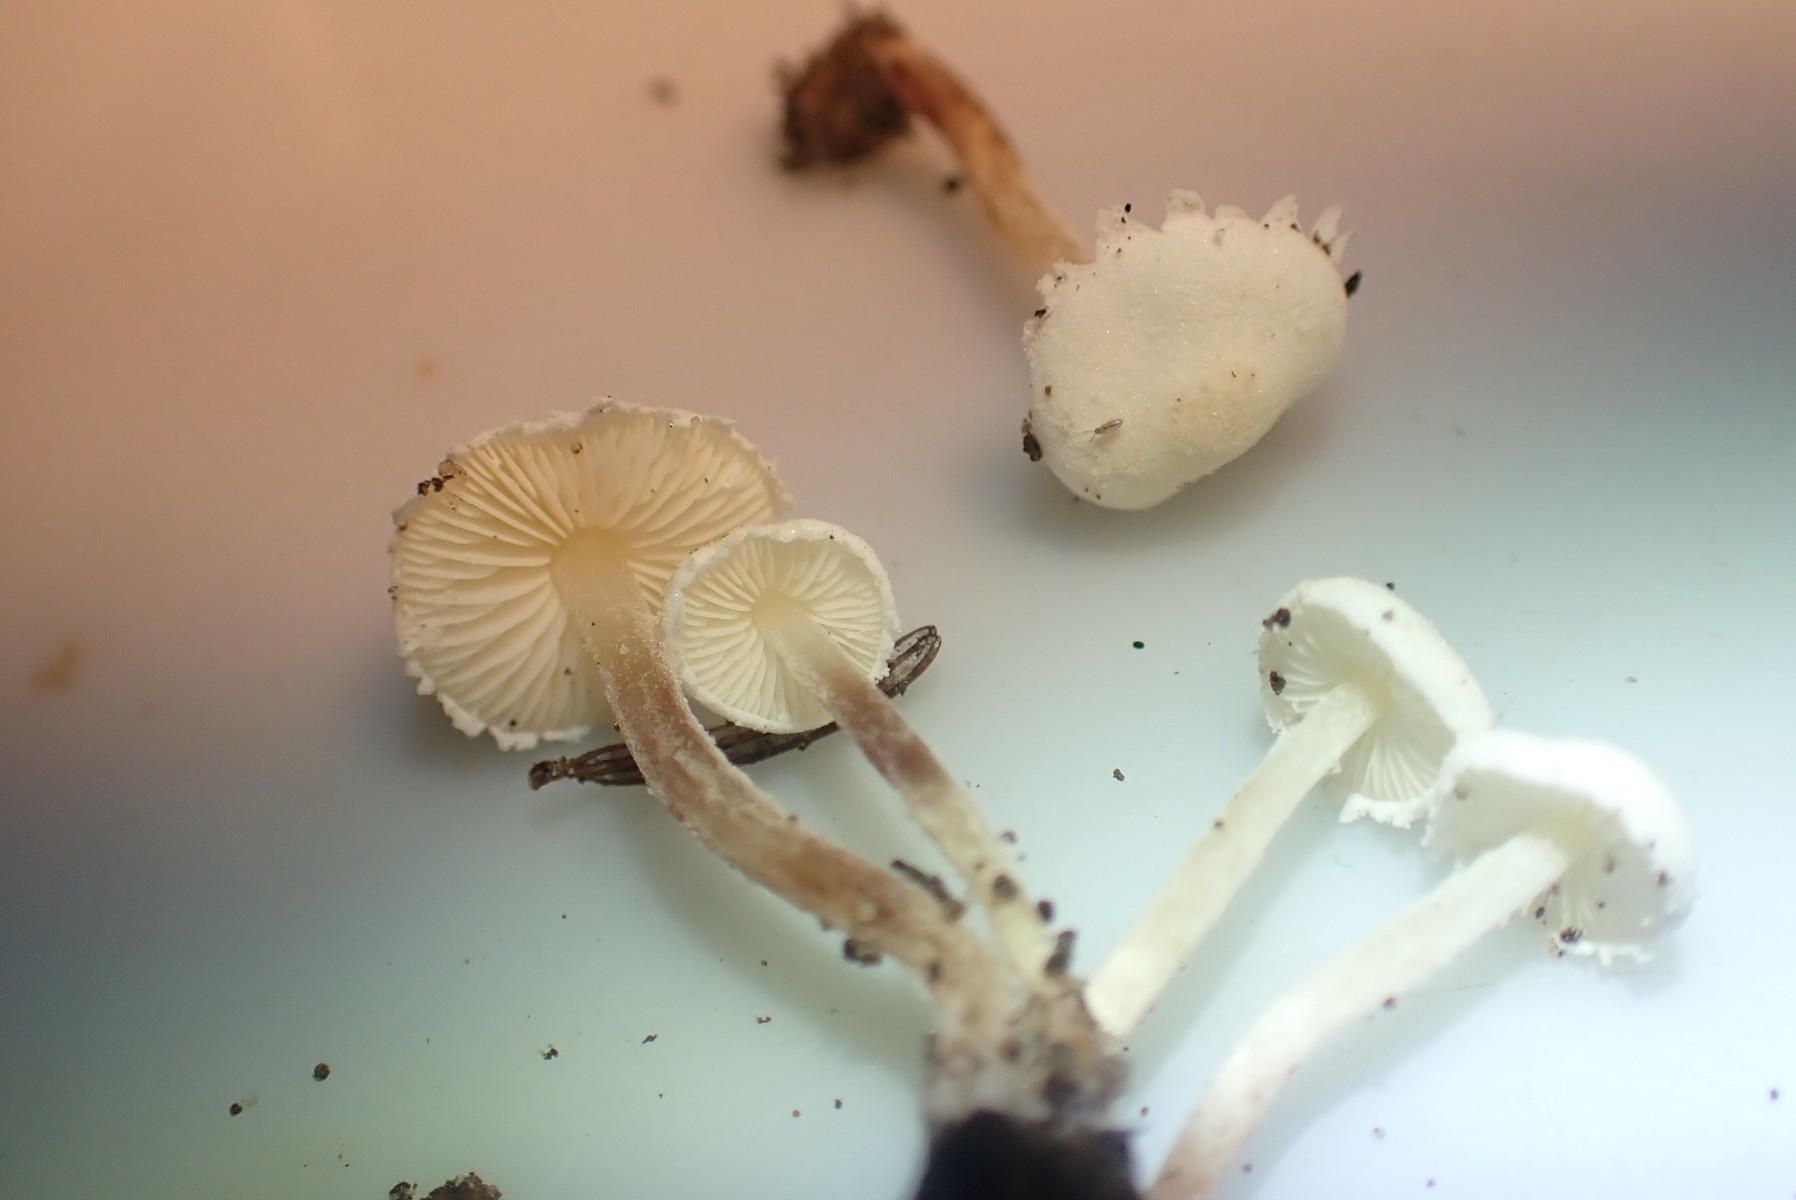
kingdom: Fungi
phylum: Basidiomycota
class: Agaricomycetes
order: Agaricales
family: Agaricaceae
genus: Cystolepiota
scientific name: Cystolepiota seminuda
